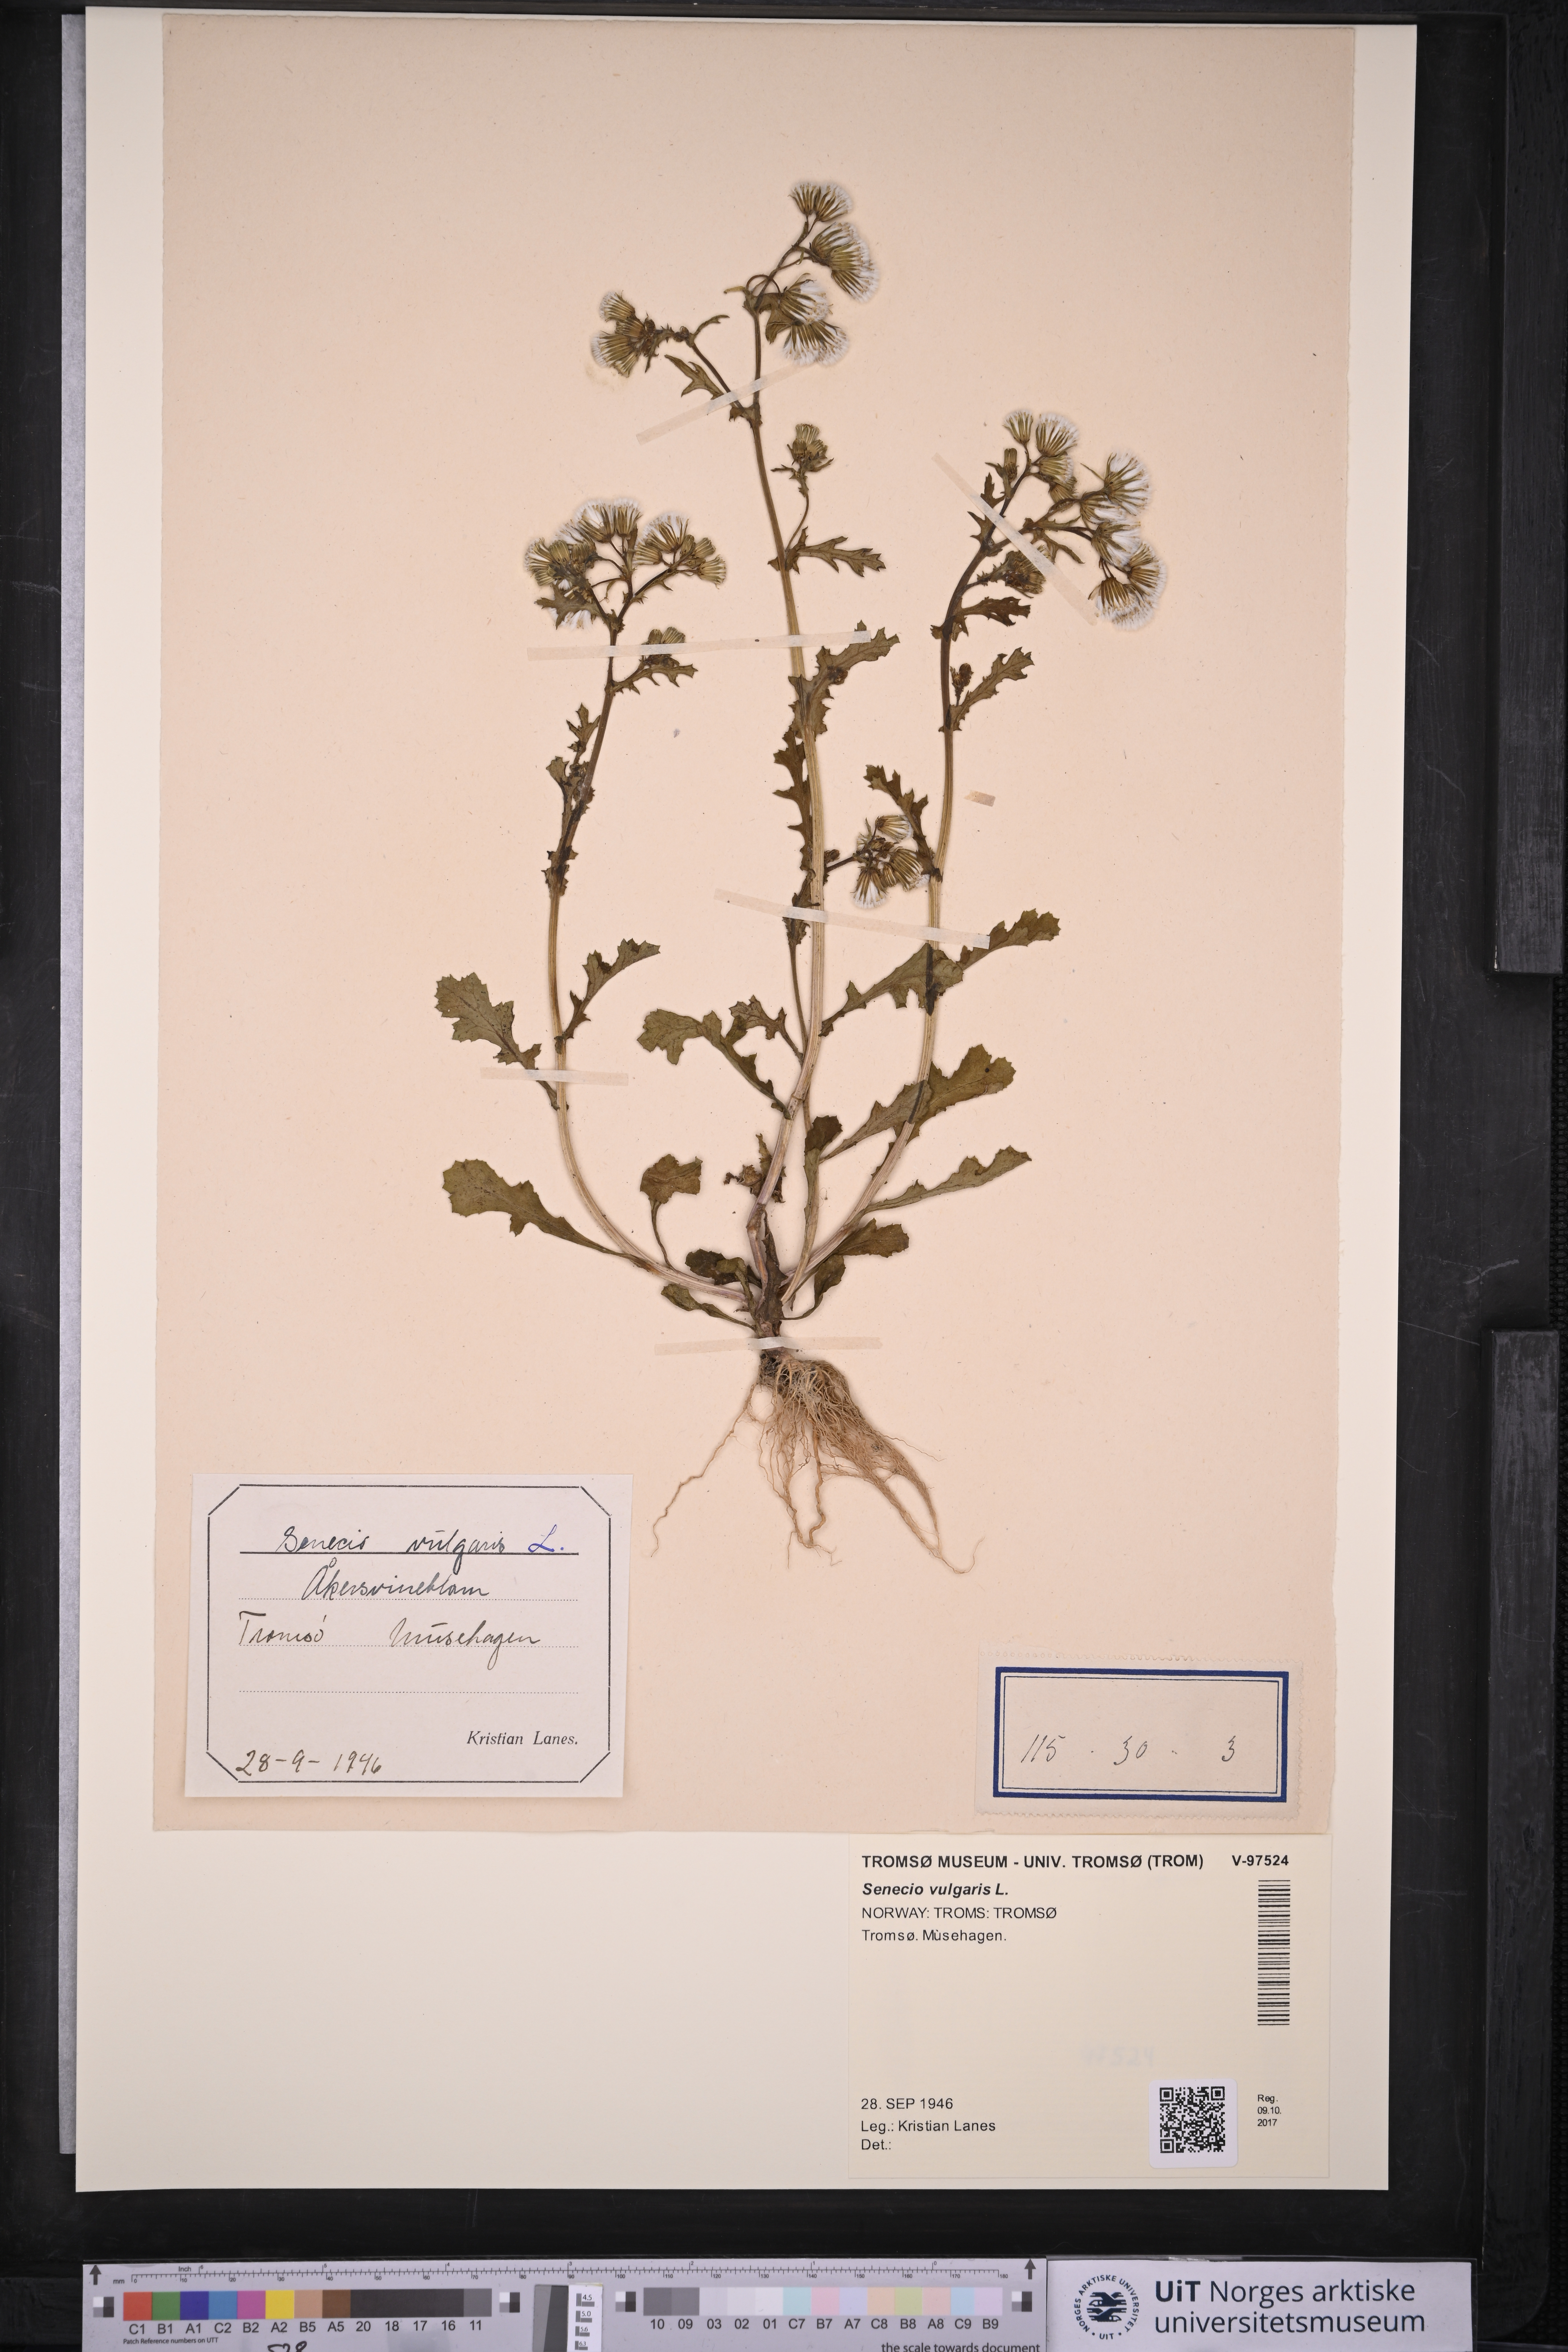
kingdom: Plantae
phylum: Tracheophyta
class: Magnoliopsida
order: Asterales
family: Asteraceae
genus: Senecio
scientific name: Senecio vulgaris
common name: Old-man-in-the-spring
